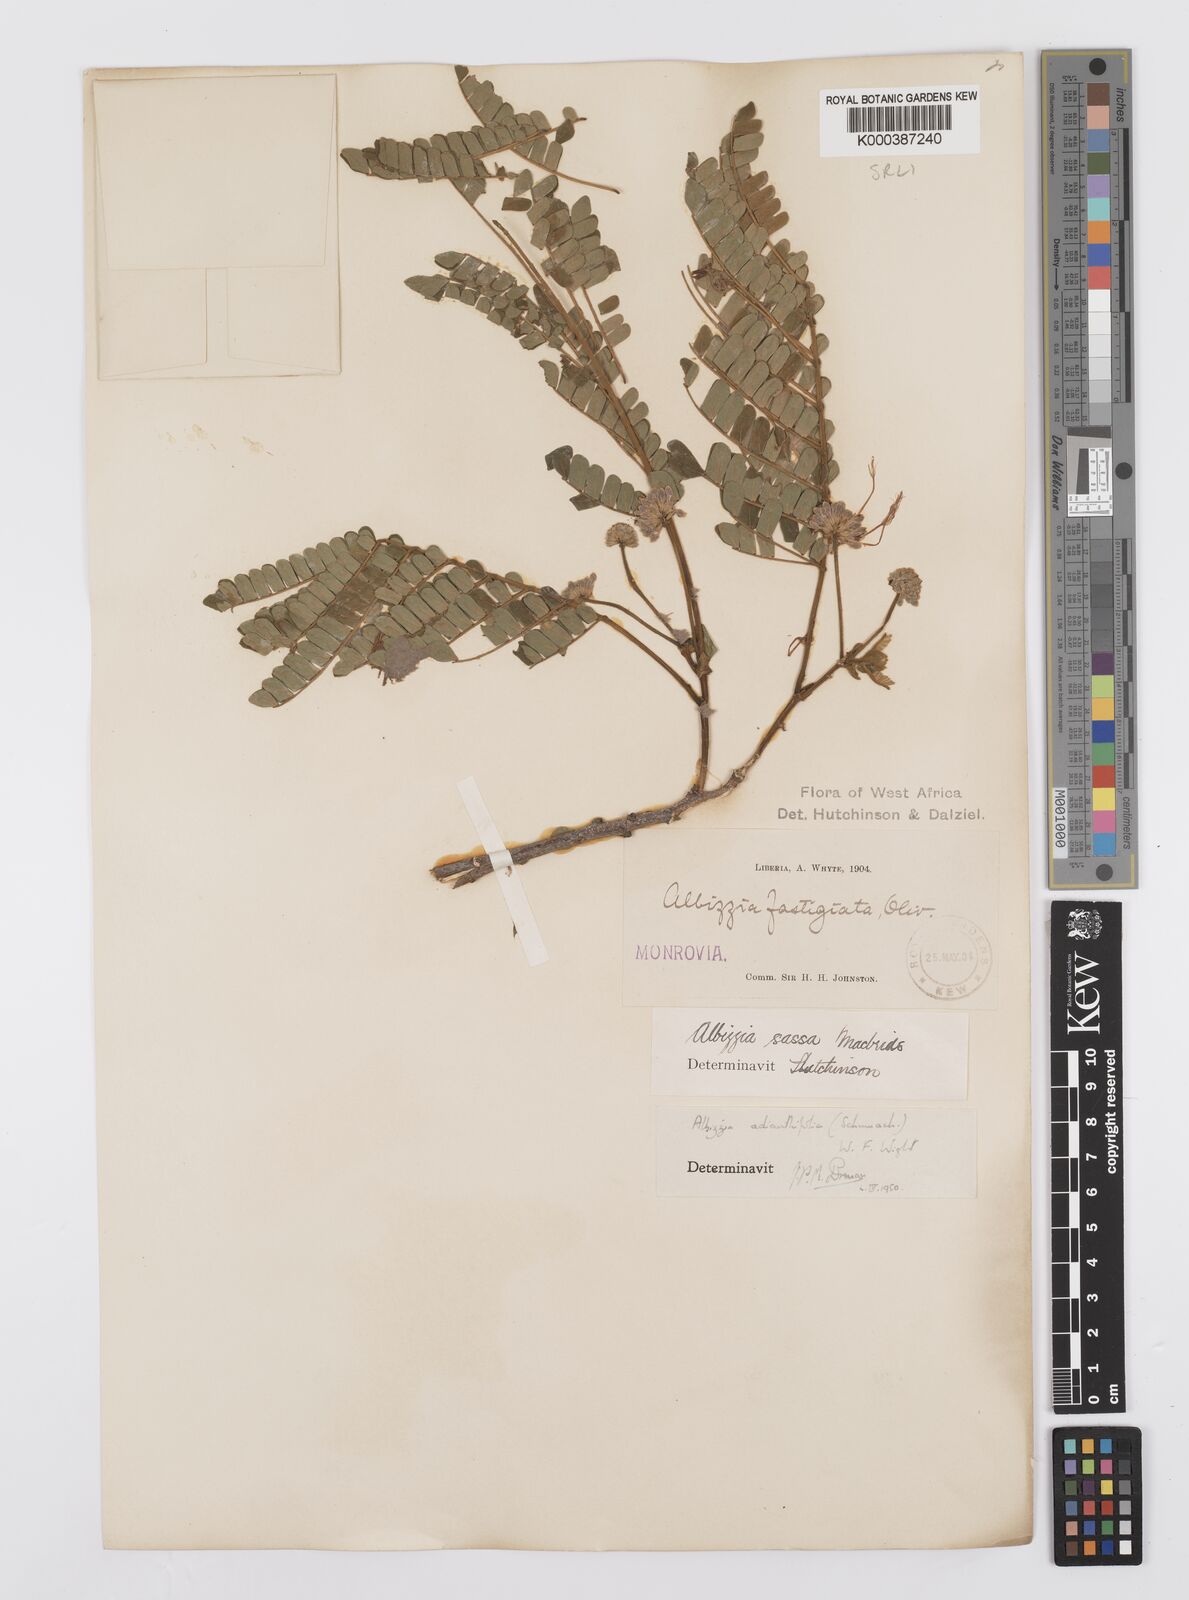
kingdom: Plantae
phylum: Tracheophyta
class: Magnoliopsida
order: Fabales
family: Fabaceae
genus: Albizia
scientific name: Albizia adianthifolia
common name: West african albizia
